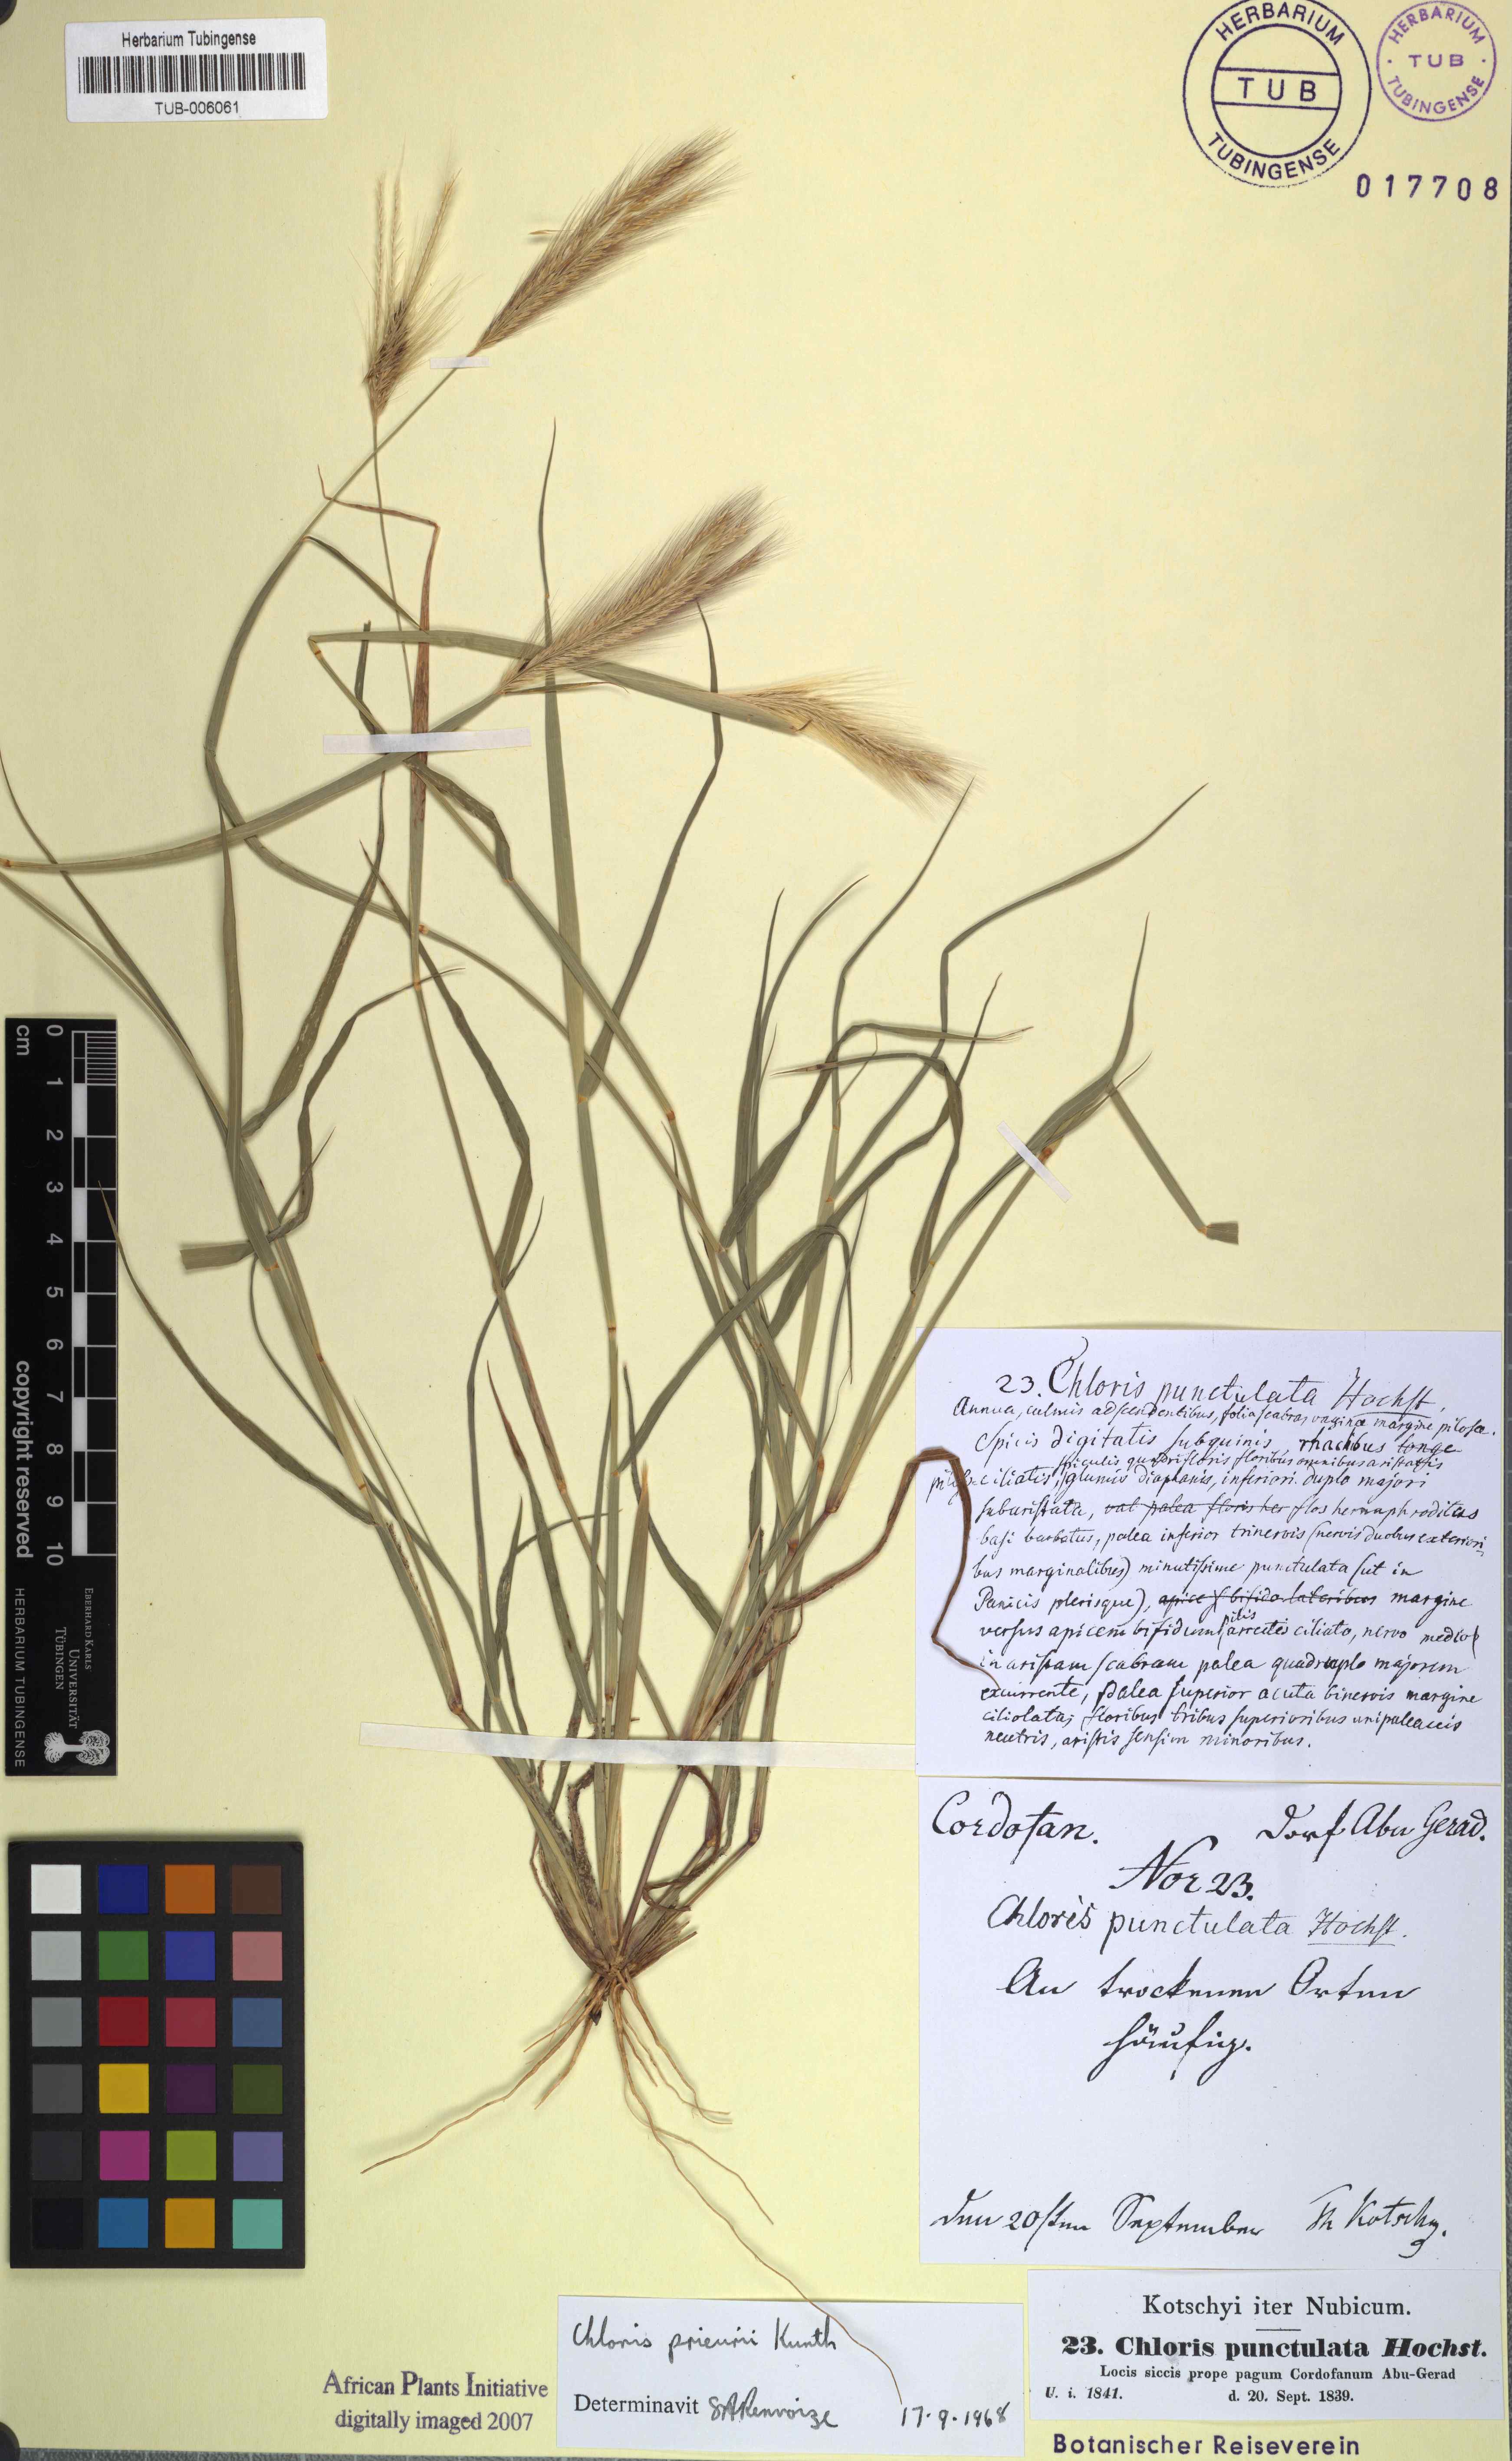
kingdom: Plantae
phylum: Tracheophyta
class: Liliopsida
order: Poales
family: Poaceae
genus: Enteropogon
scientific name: Enteropogon prieurii
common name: Prieur's umbrellagrass
